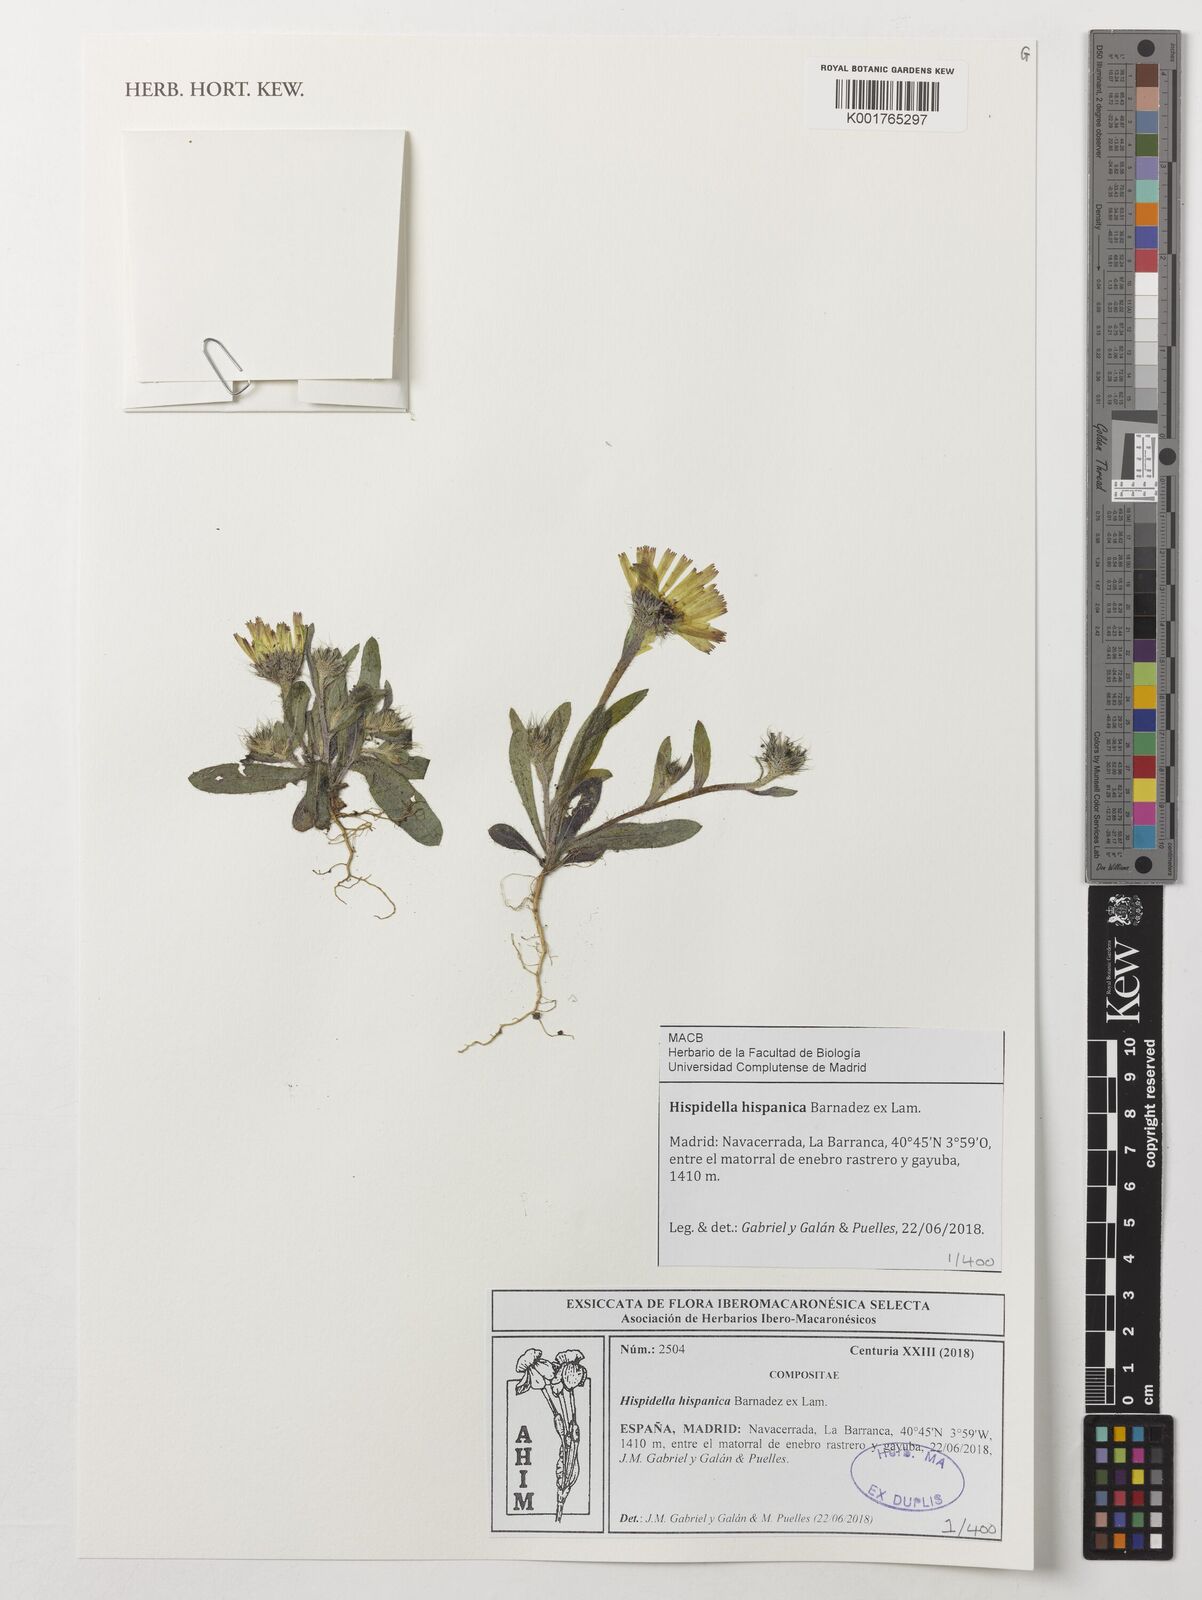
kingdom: Plantae
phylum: Tracheophyta
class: Magnoliopsida
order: Asterales
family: Asteraceae
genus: Hispidella
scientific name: Hispidella hispanica
